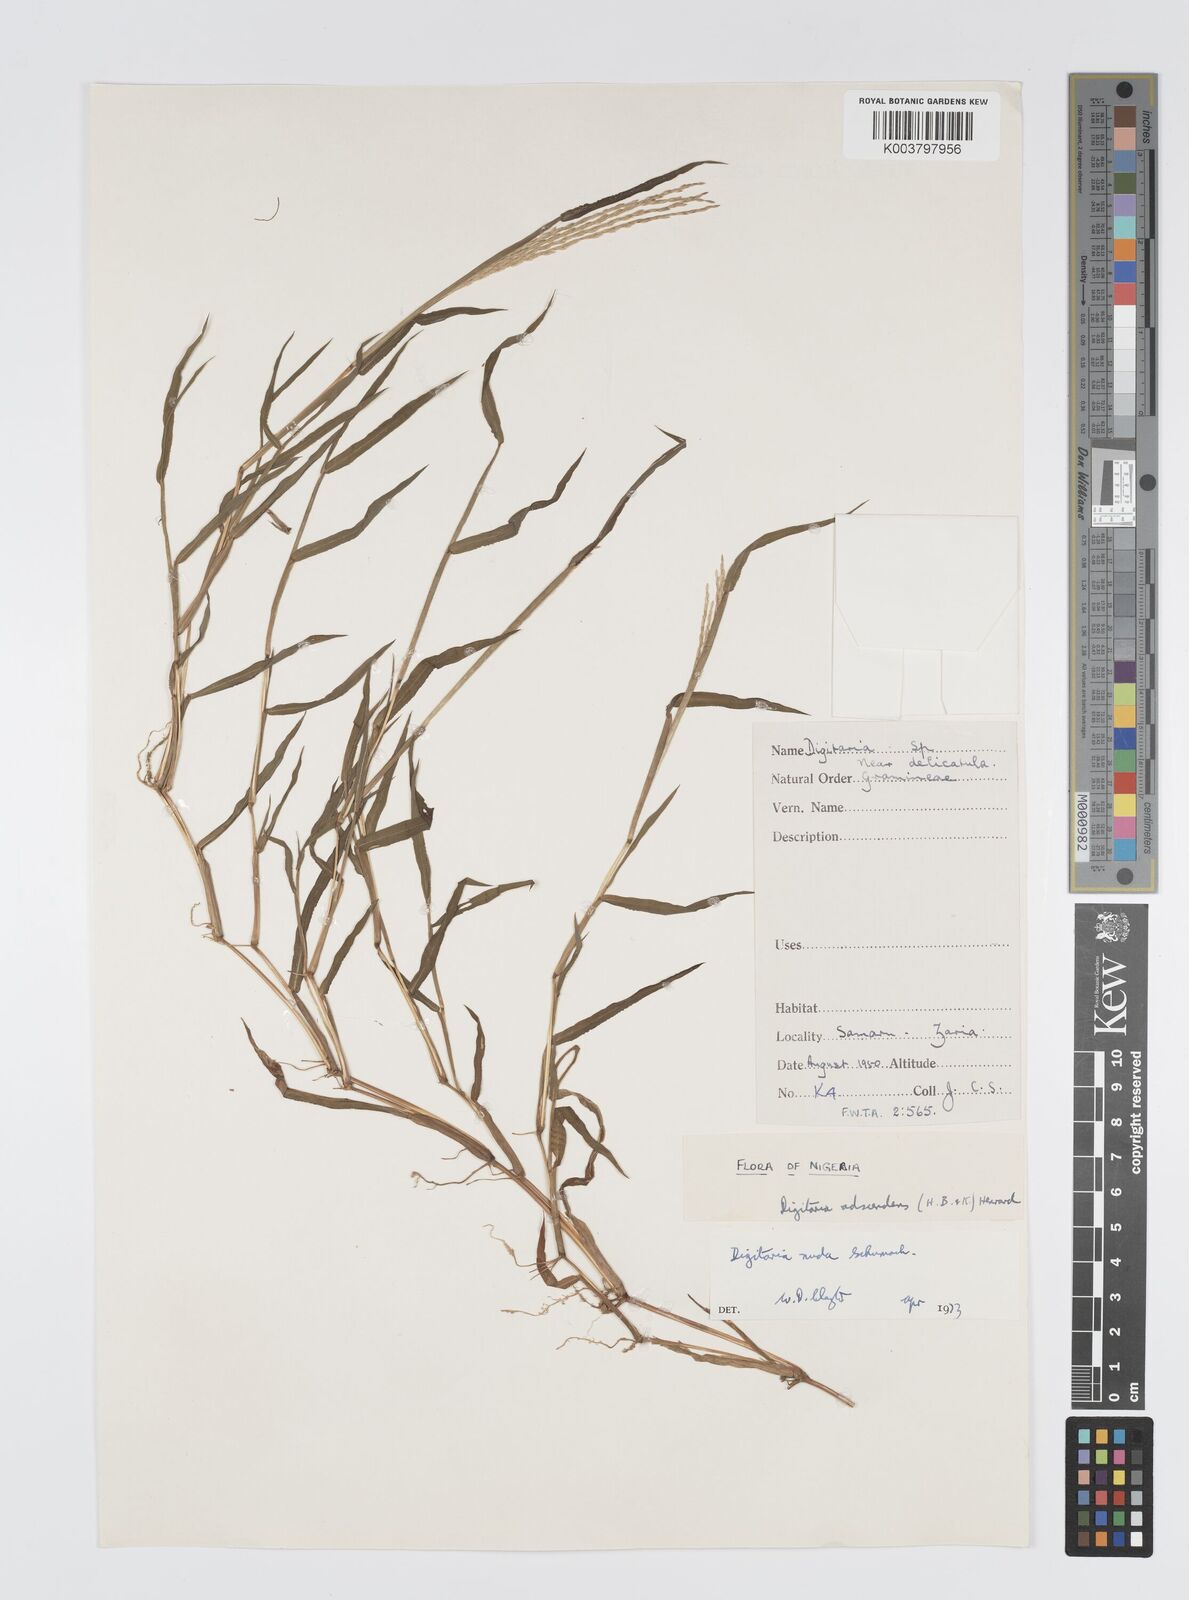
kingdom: Plantae
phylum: Tracheophyta
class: Liliopsida
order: Poales
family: Poaceae
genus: Digitaria
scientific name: Digitaria nuda
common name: Naked crabgrass
